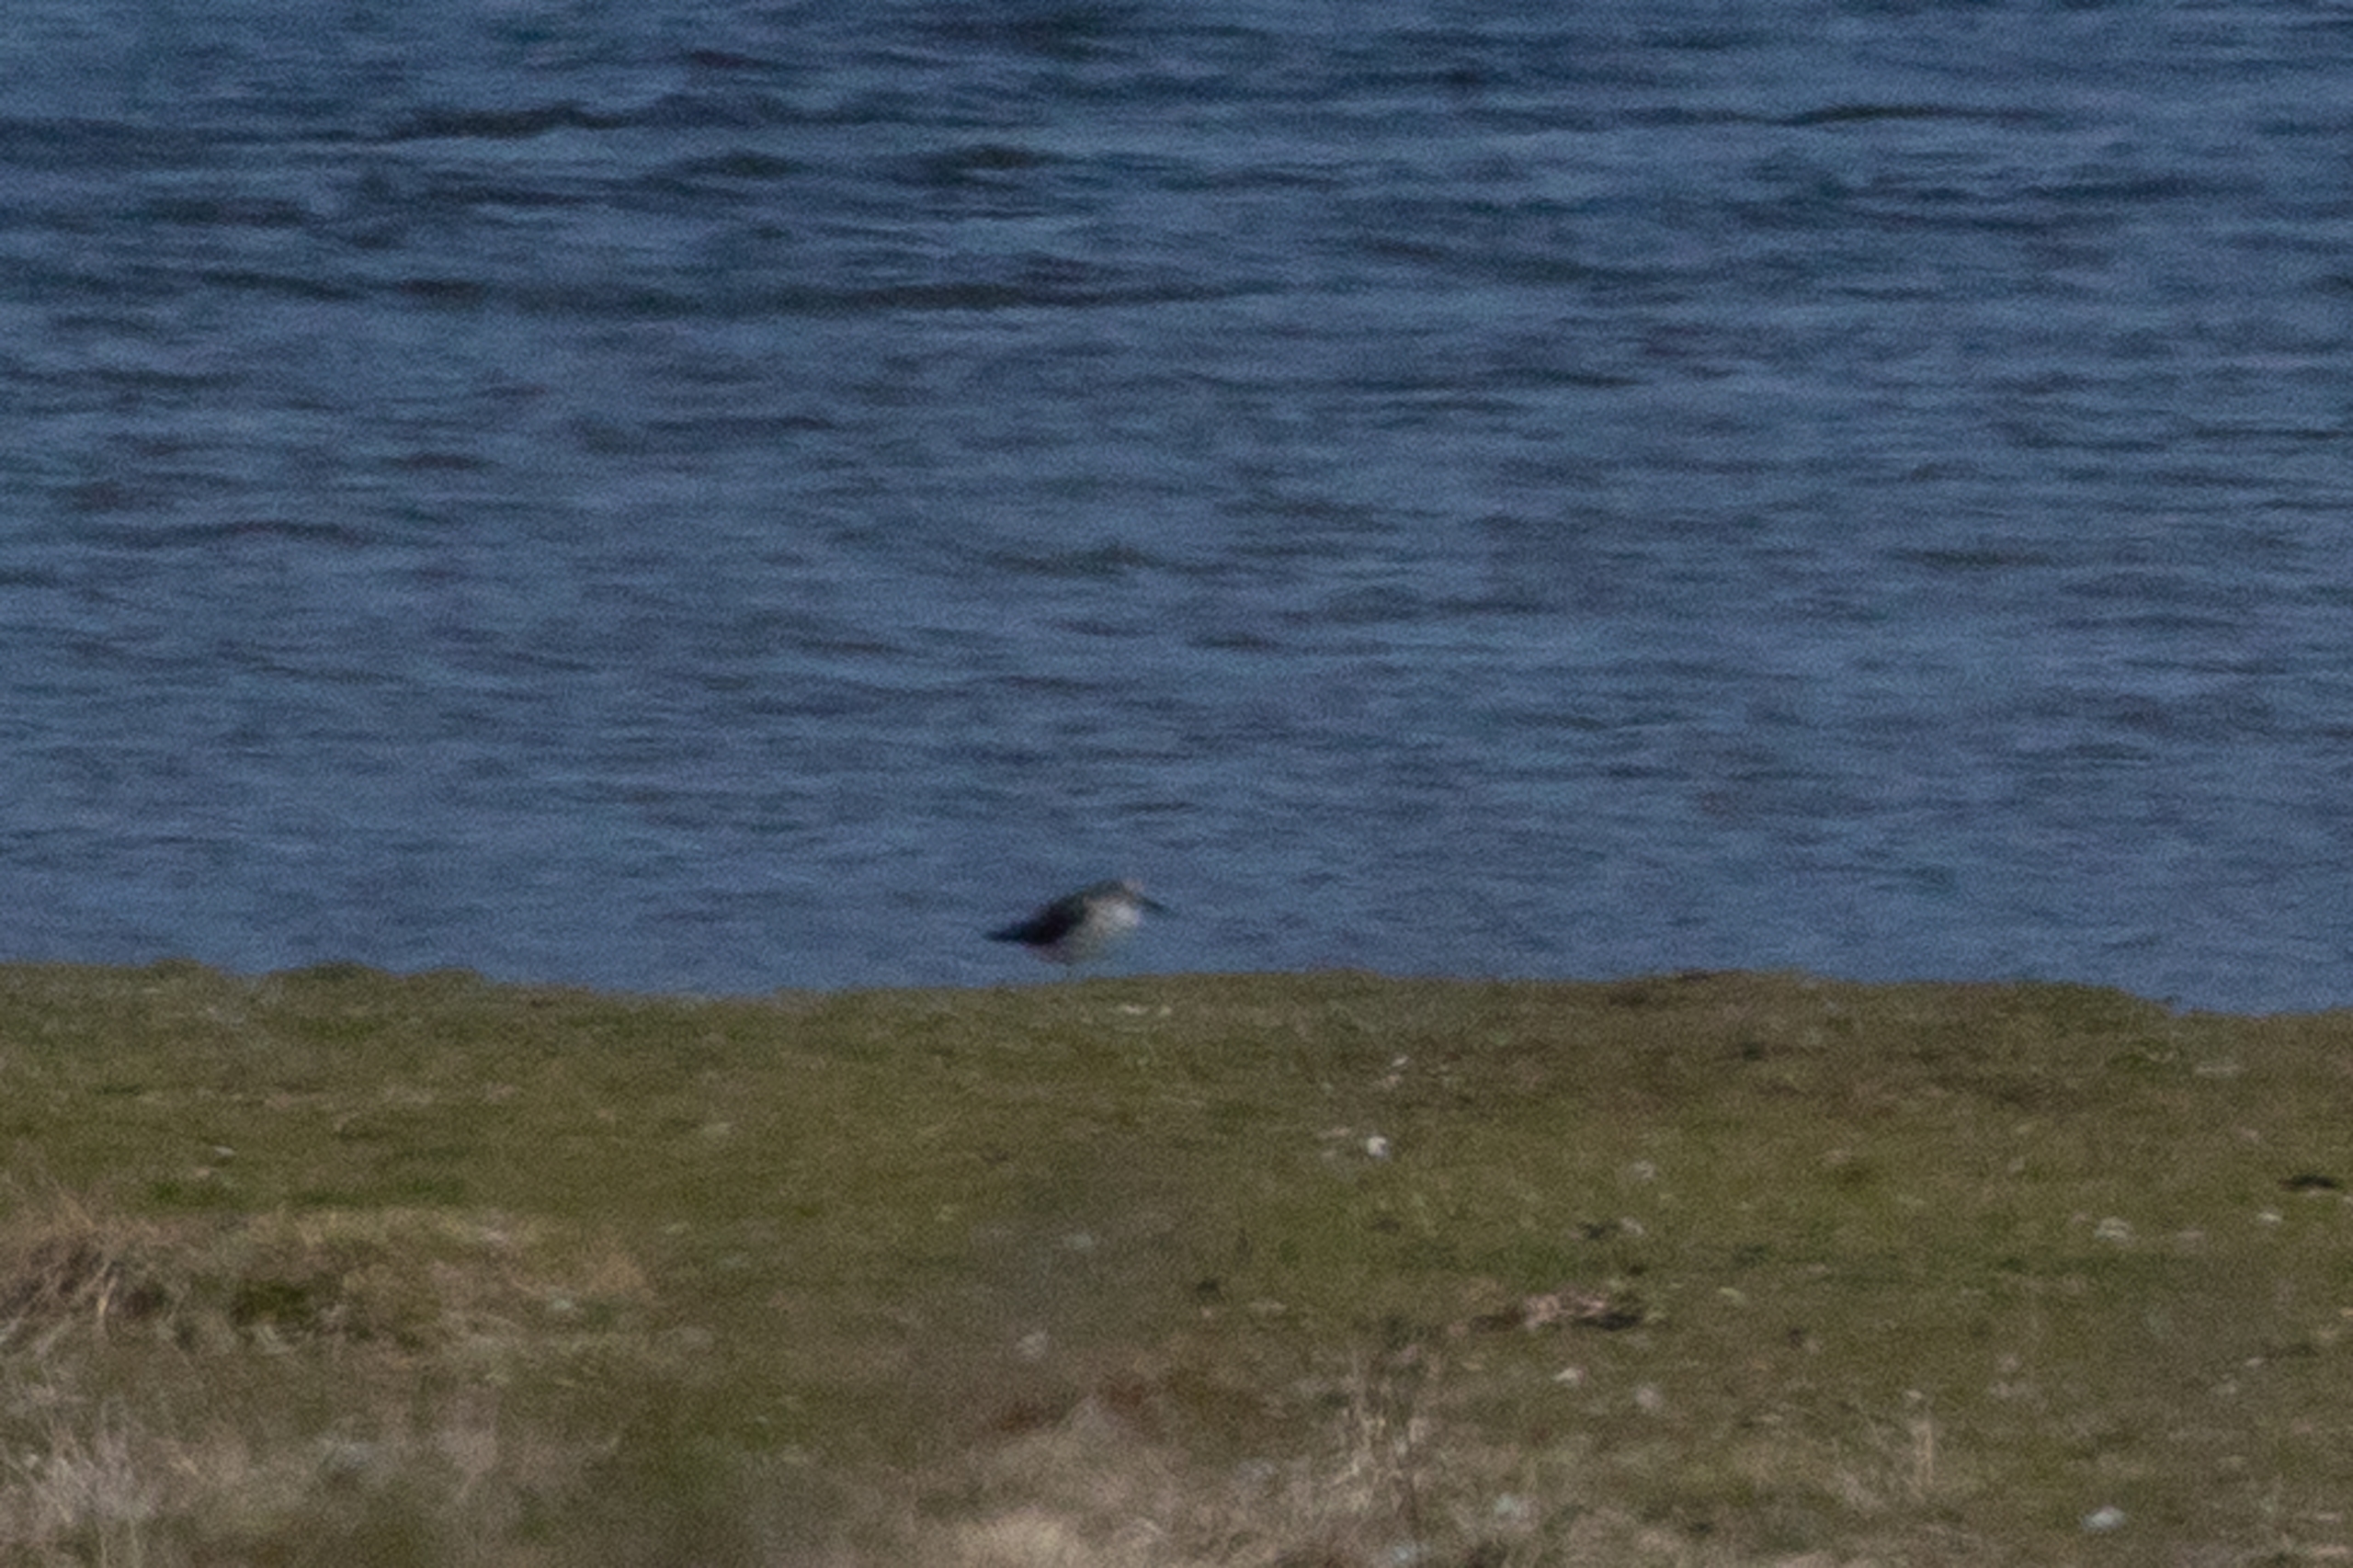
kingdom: Animalia
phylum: Chordata
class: Aves
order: Charadriiformes
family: Scolopacidae
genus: Tringa
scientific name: Tringa nebularia
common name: Hvidklire
